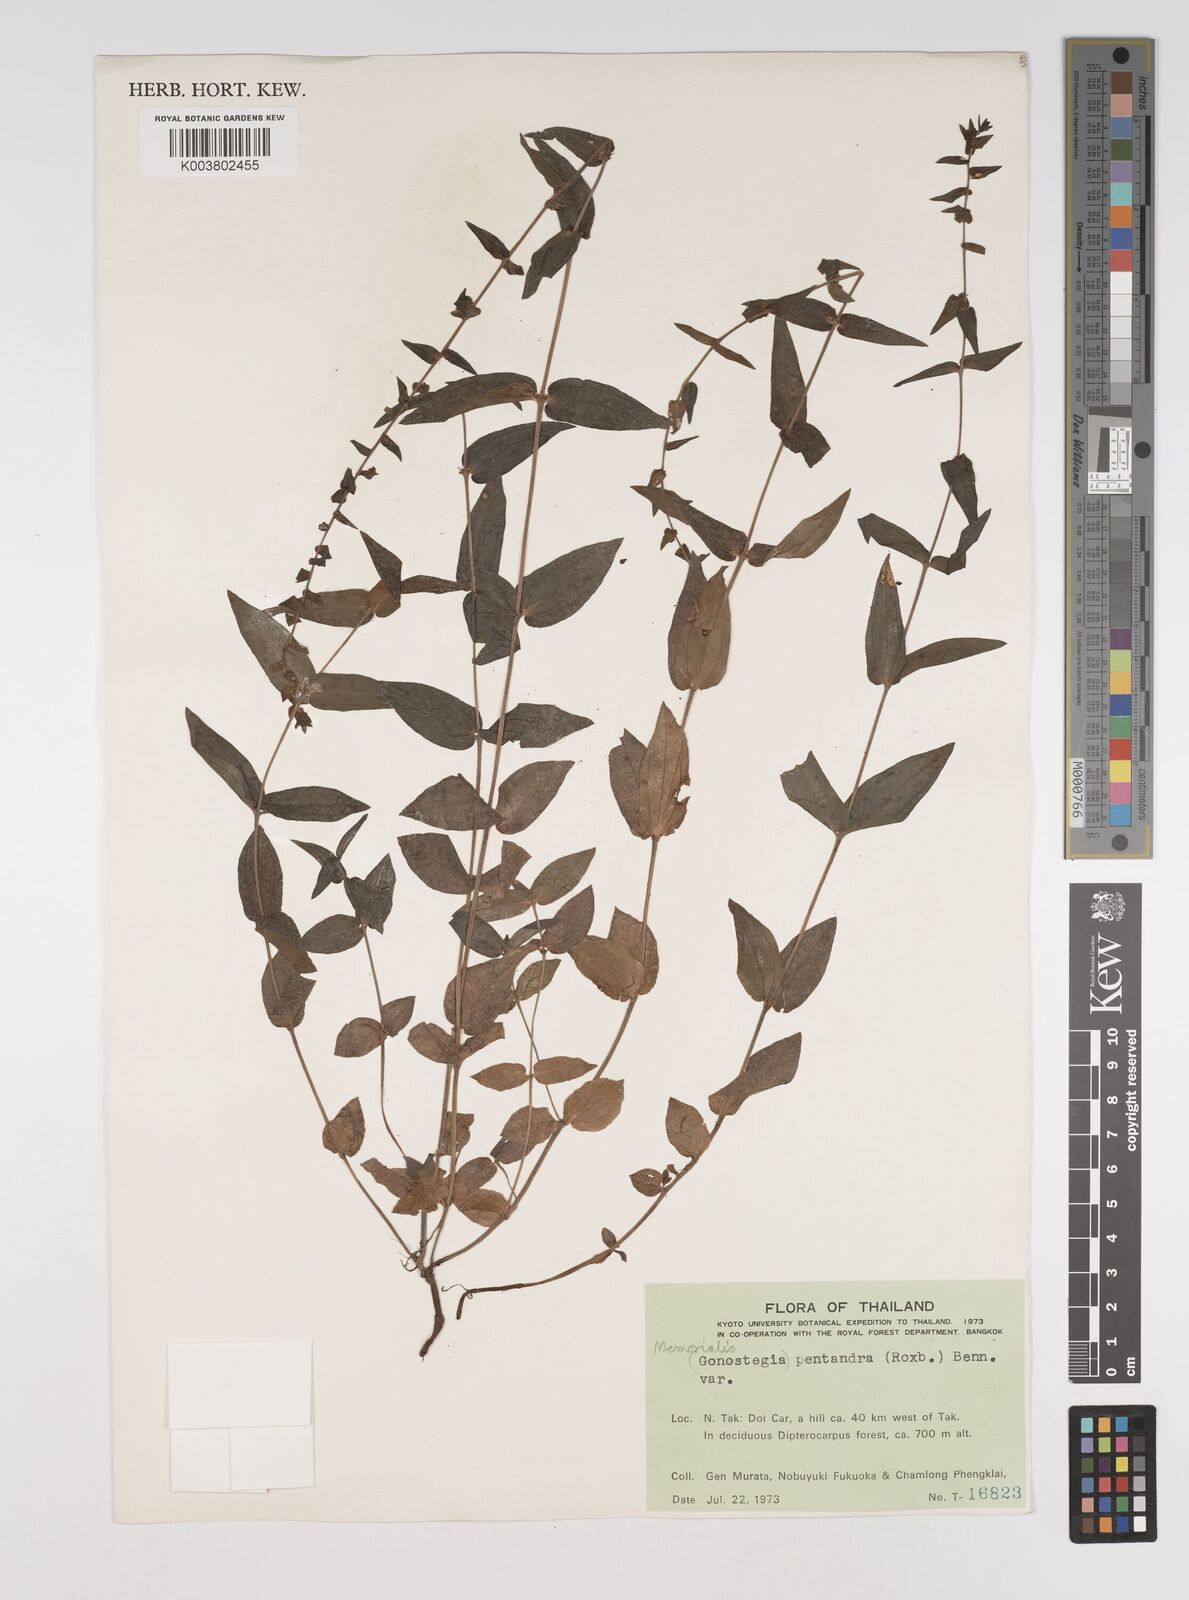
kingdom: Plantae
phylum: Tracheophyta
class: Magnoliopsida
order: Rosales
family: Urticaceae
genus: Gonostegia
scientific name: Gonostegia pentandra
